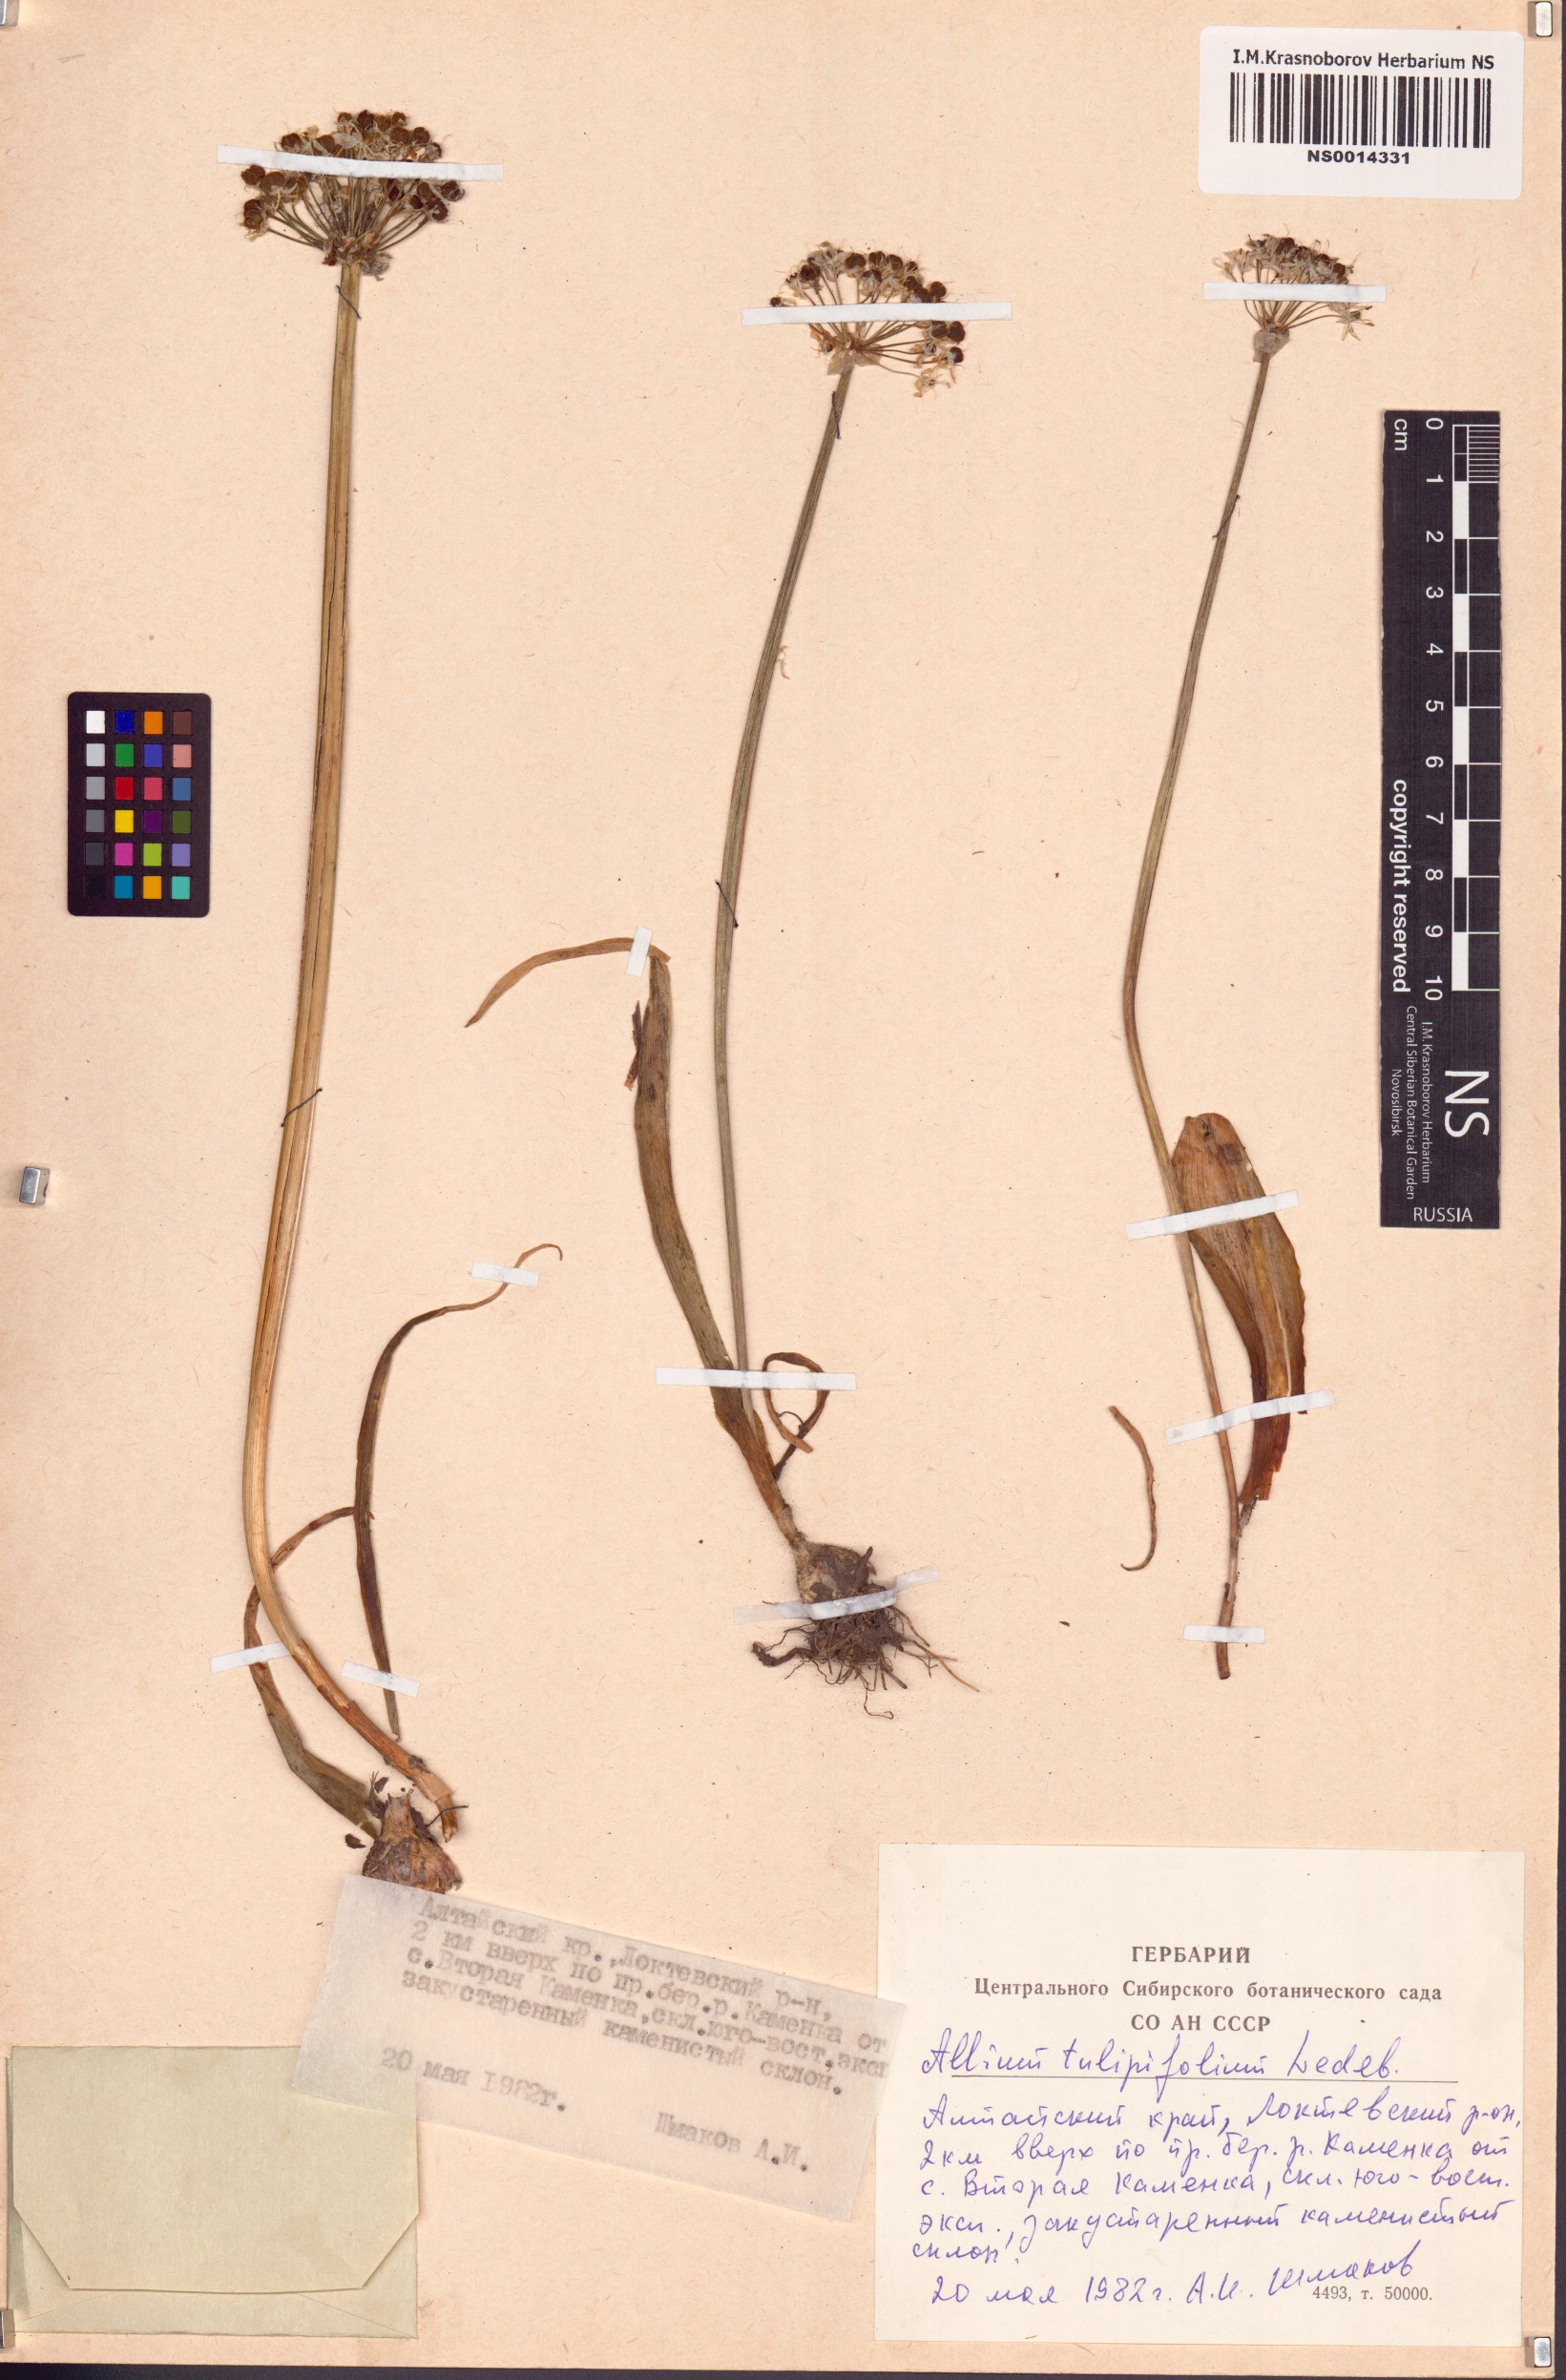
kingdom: Plantae
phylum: Tracheophyta
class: Liliopsida
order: Asparagales
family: Amaryllidaceae
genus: Allium
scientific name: Allium tulipifolium
